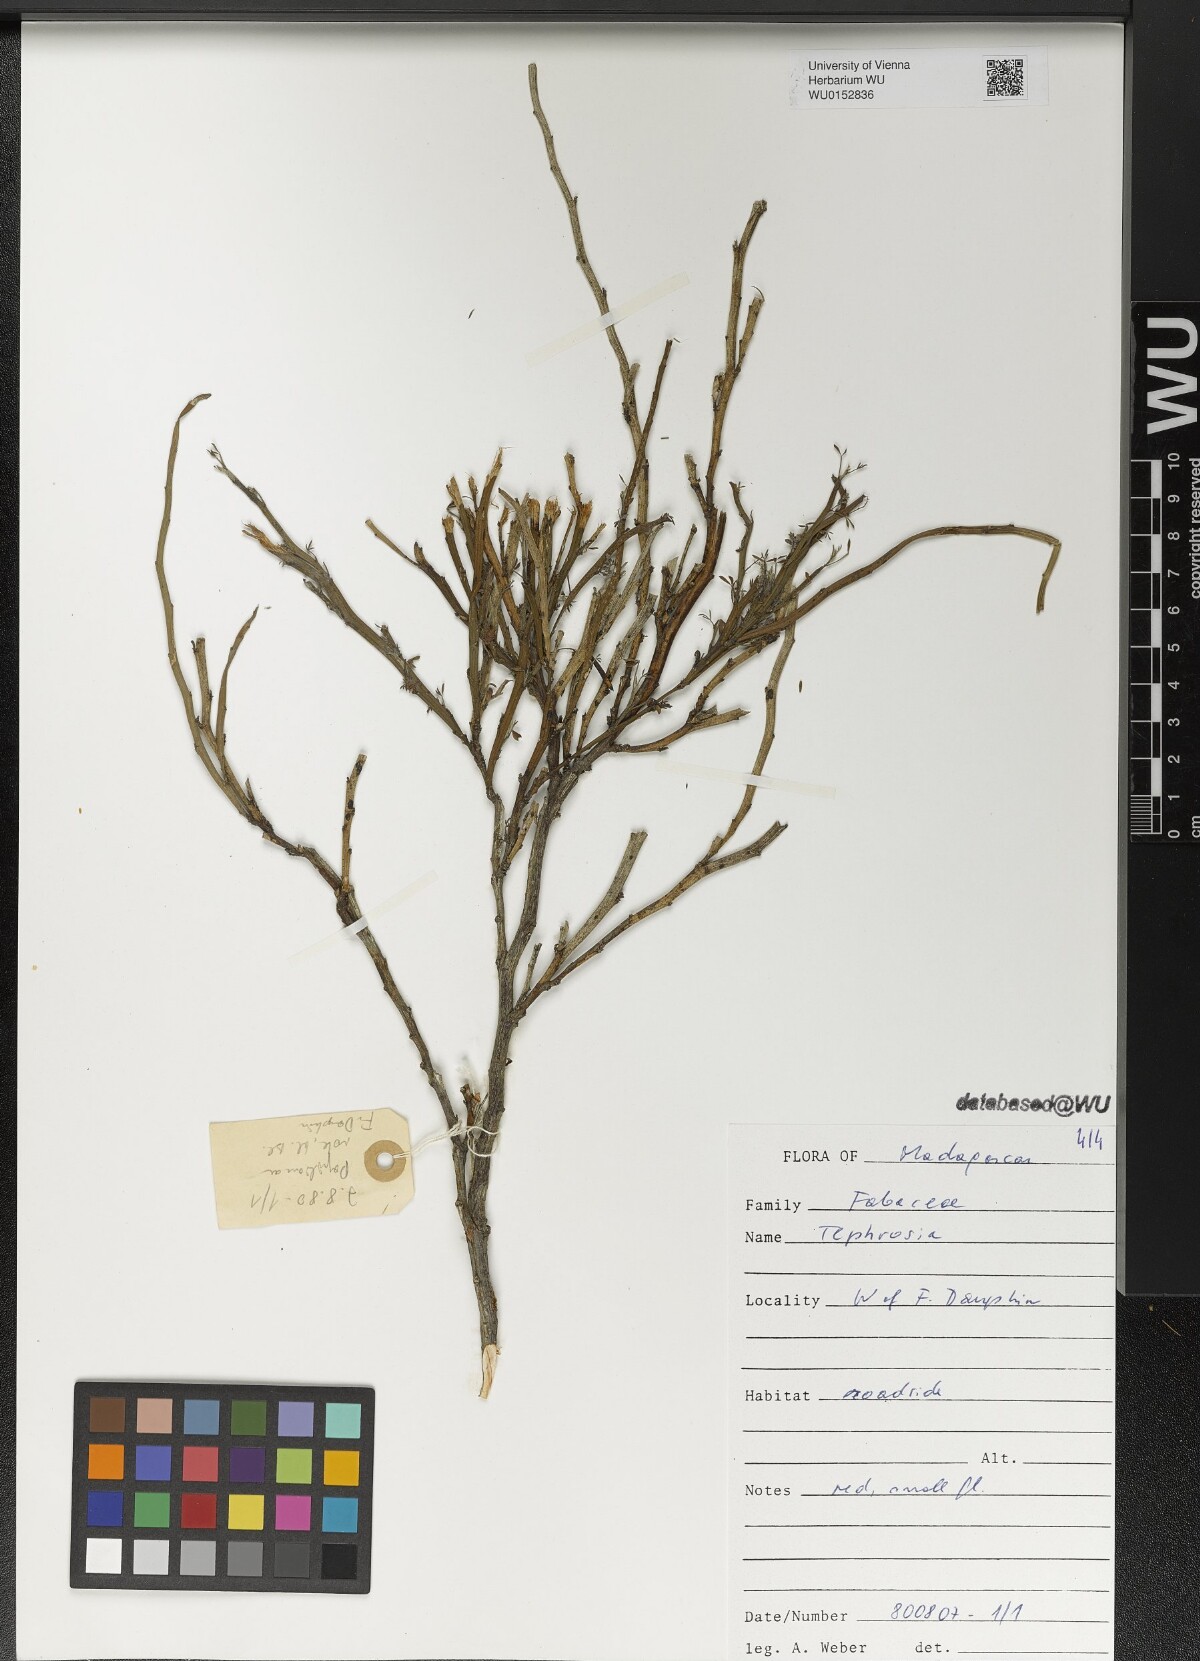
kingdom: Plantae
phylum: Tracheophyta
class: Magnoliopsida
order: Fabales
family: Fabaceae
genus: Tephrosia
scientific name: Tephrosia
